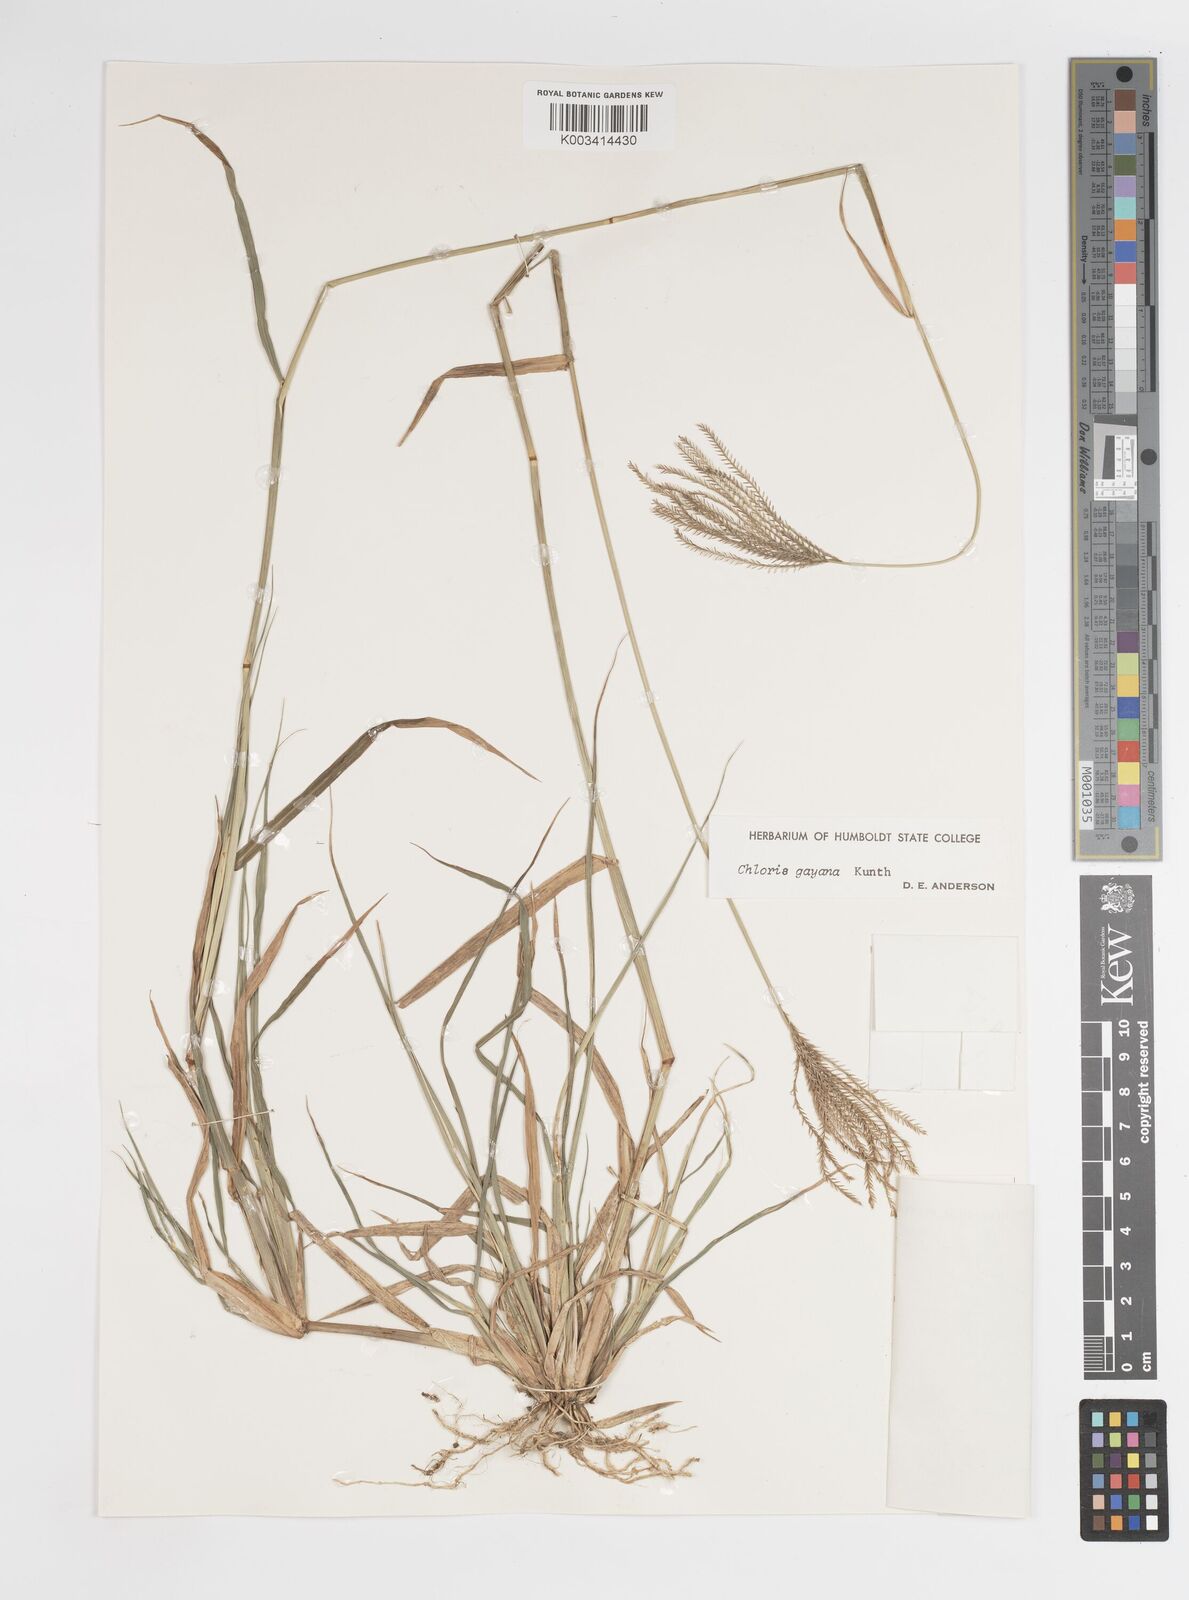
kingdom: Plantae
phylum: Tracheophyta
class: Liliopsida
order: Poales
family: Poaceae
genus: Chloris
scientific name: Chloris gayana
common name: Rhodes grass
